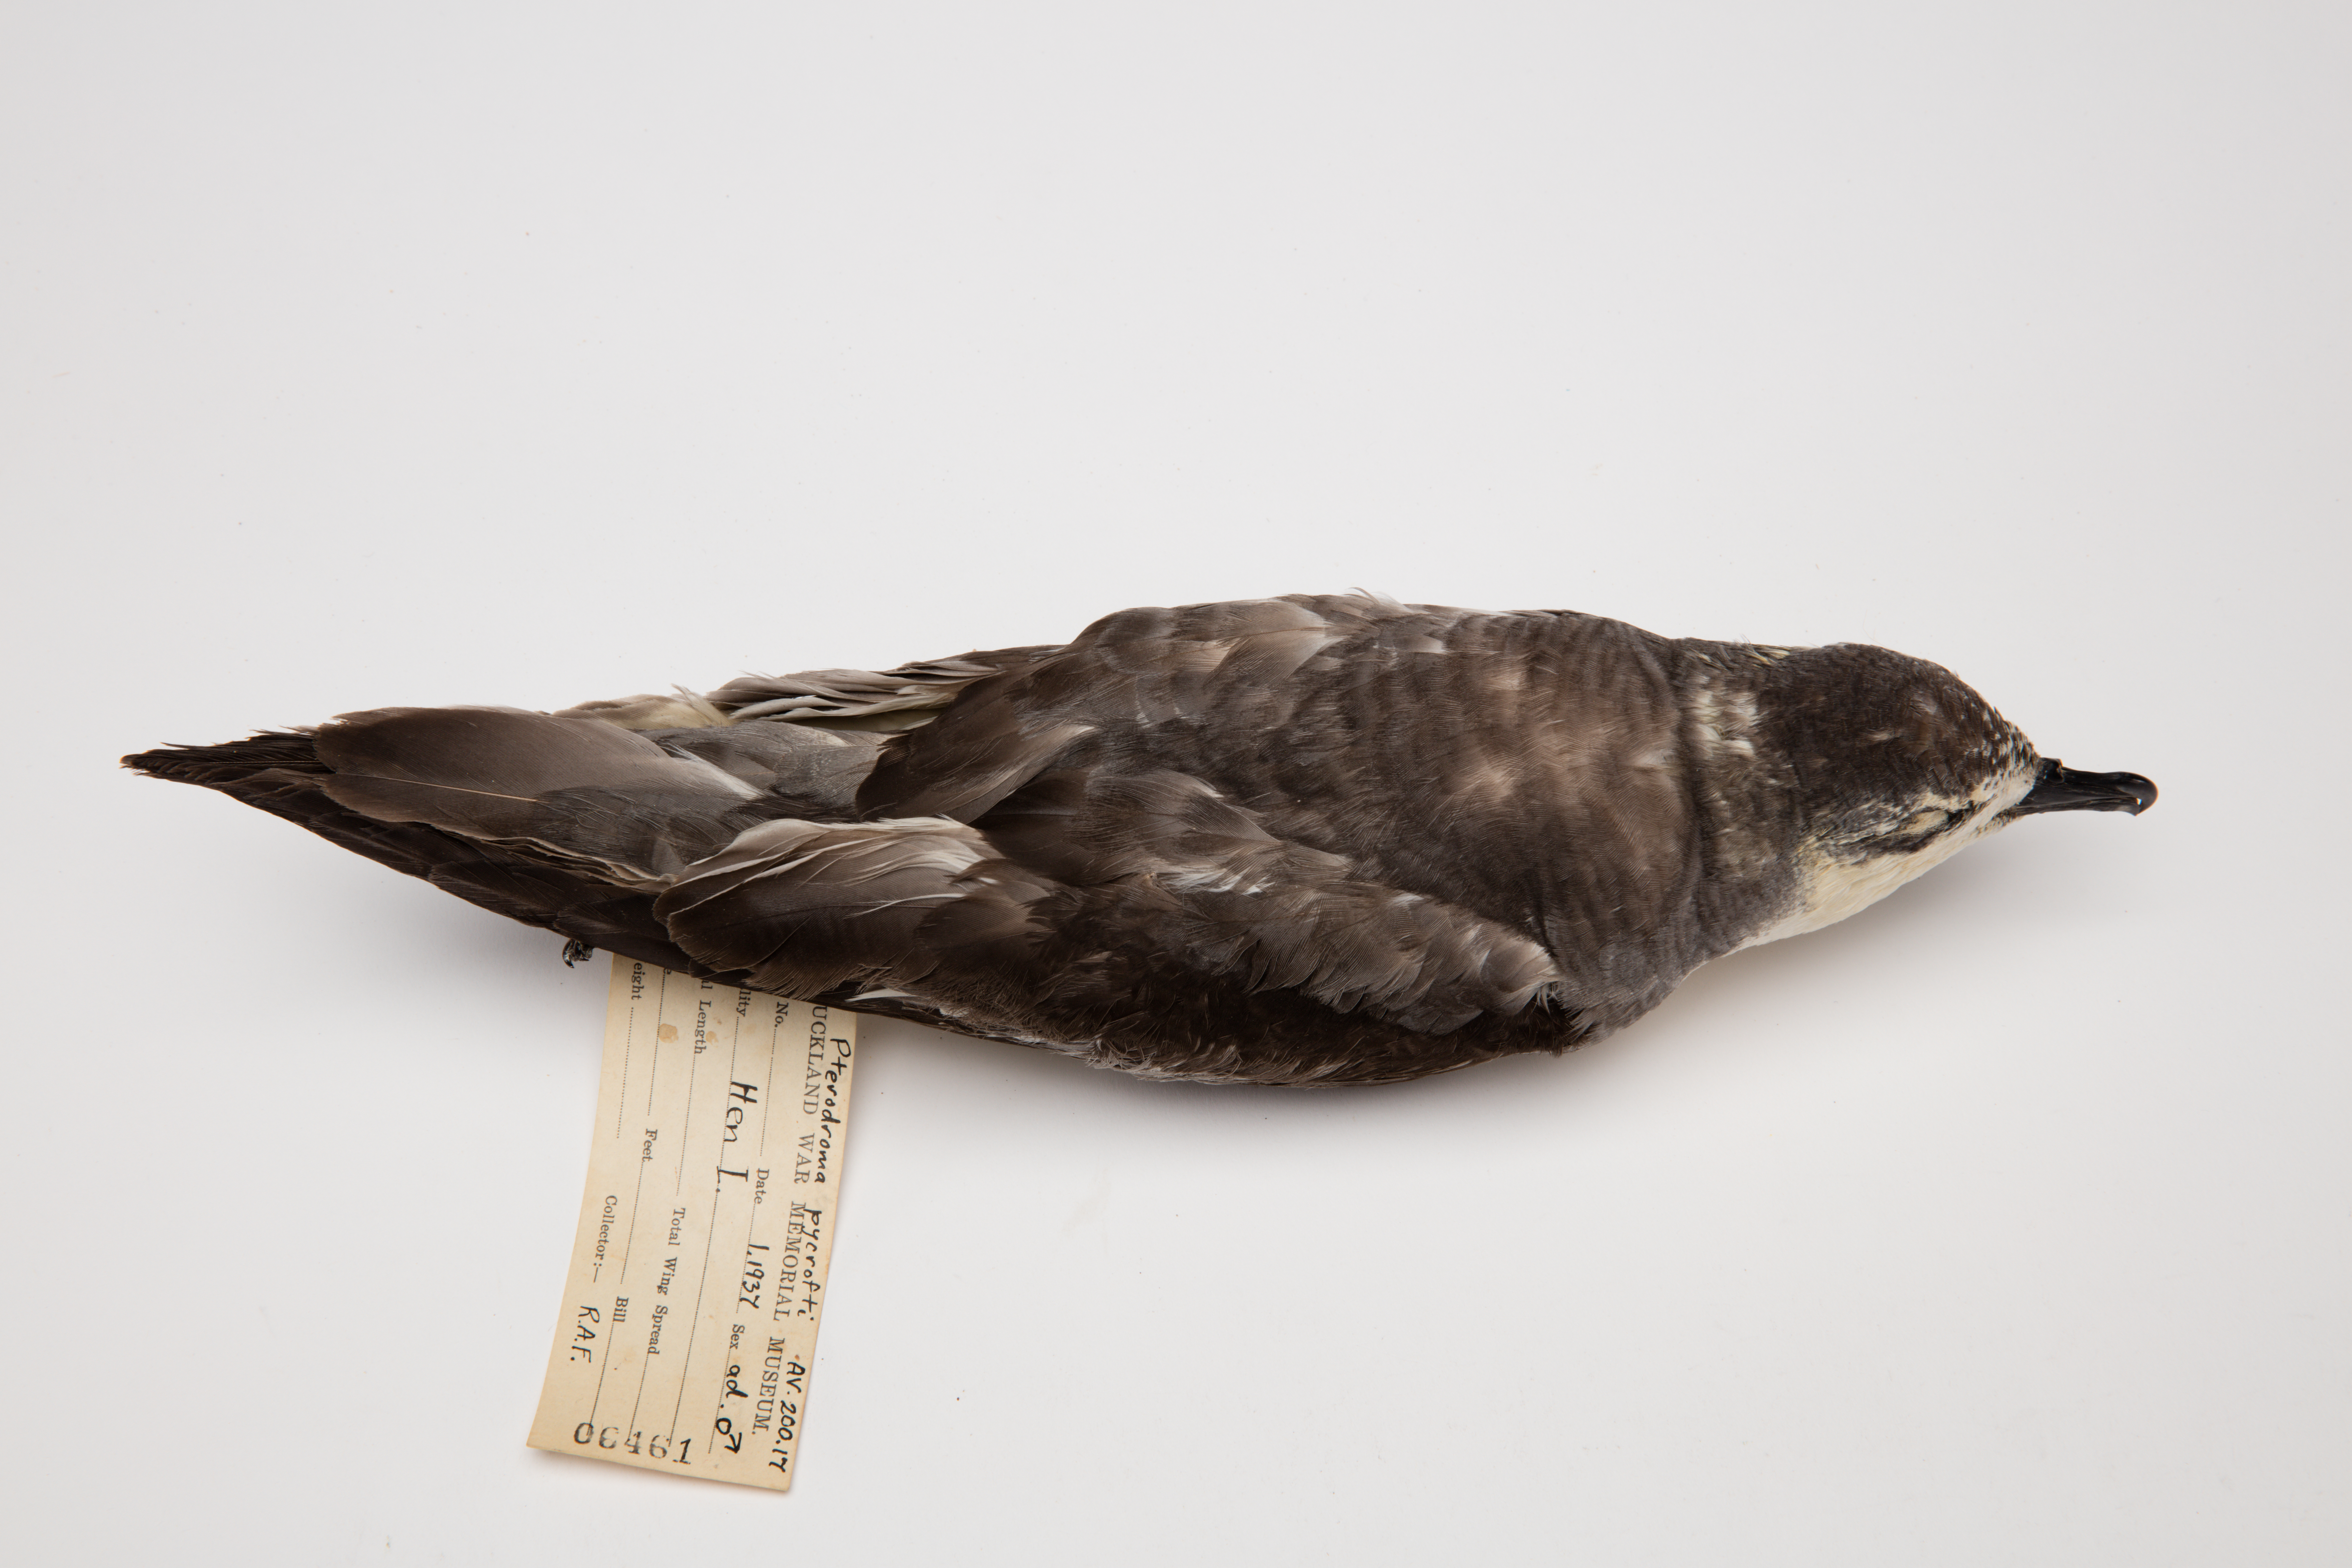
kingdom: Animalia
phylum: Chordata
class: Aves
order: Procellariiformes
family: Procellariidae
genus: Pterodroma
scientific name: Pterodroma pycrofti
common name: Pycroft's petrel
